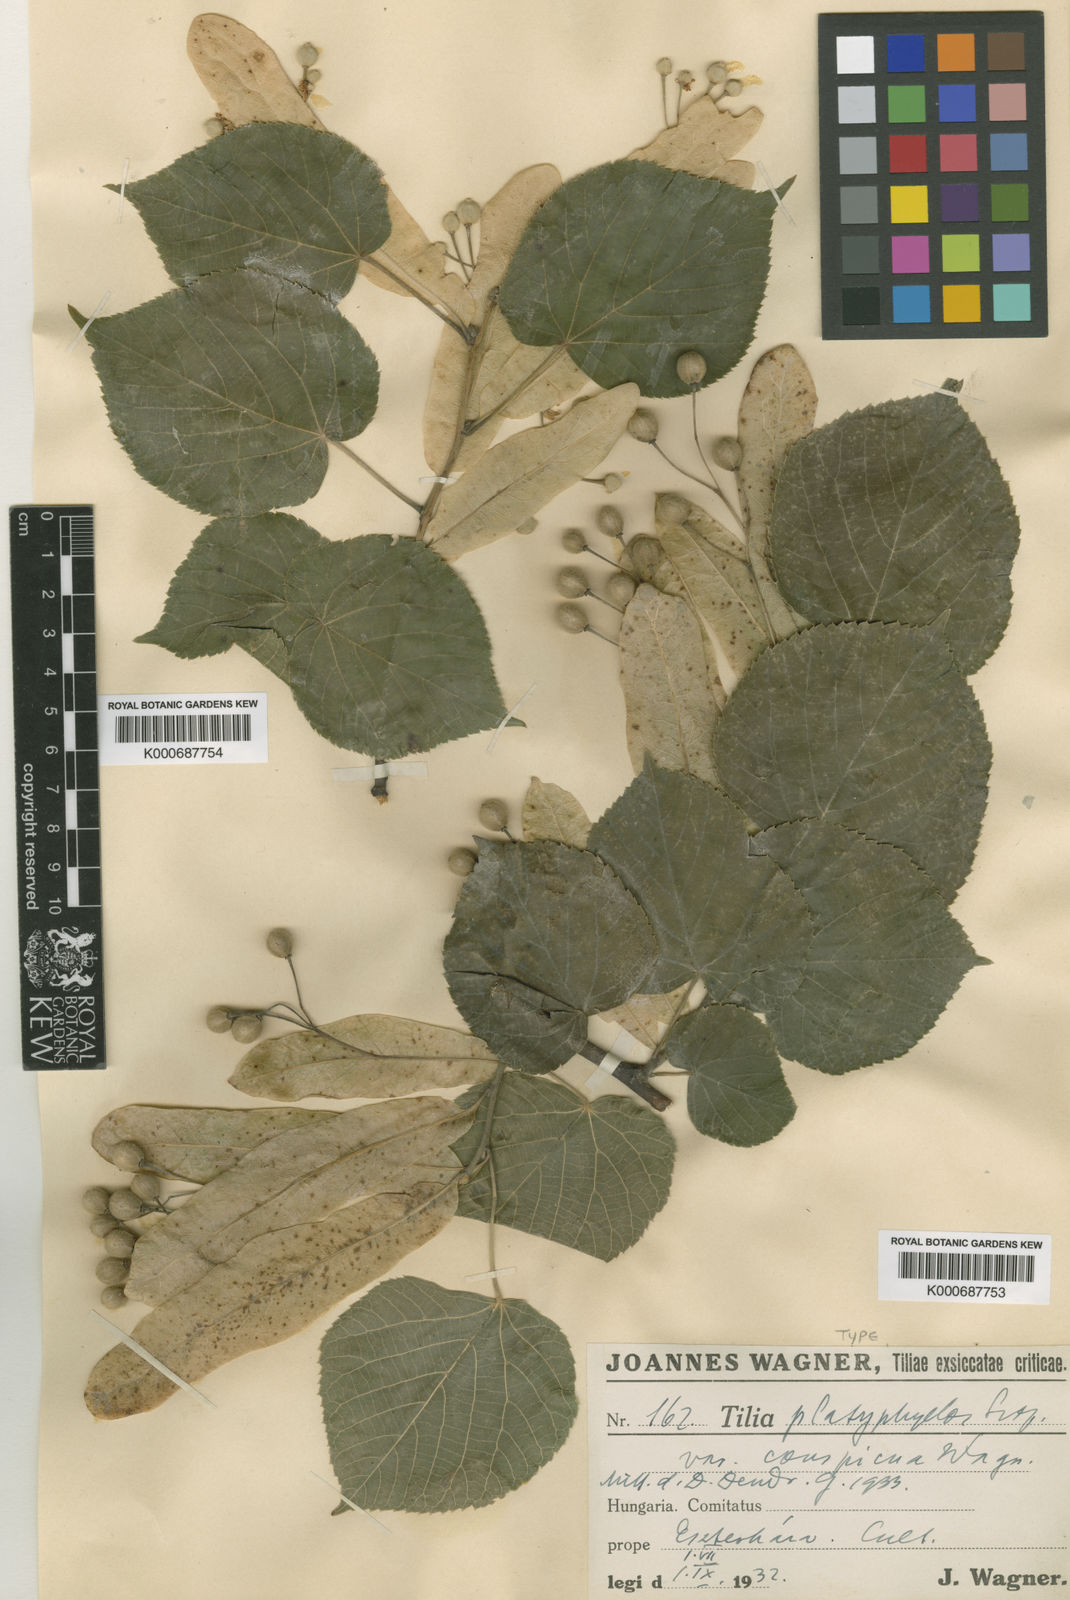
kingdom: Plantae
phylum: Tracheophyta
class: Magnoliopsida
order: Malvales
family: Malvaceae
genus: Tilia
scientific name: Tilia platyphyllos
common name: Large-leaved lime
